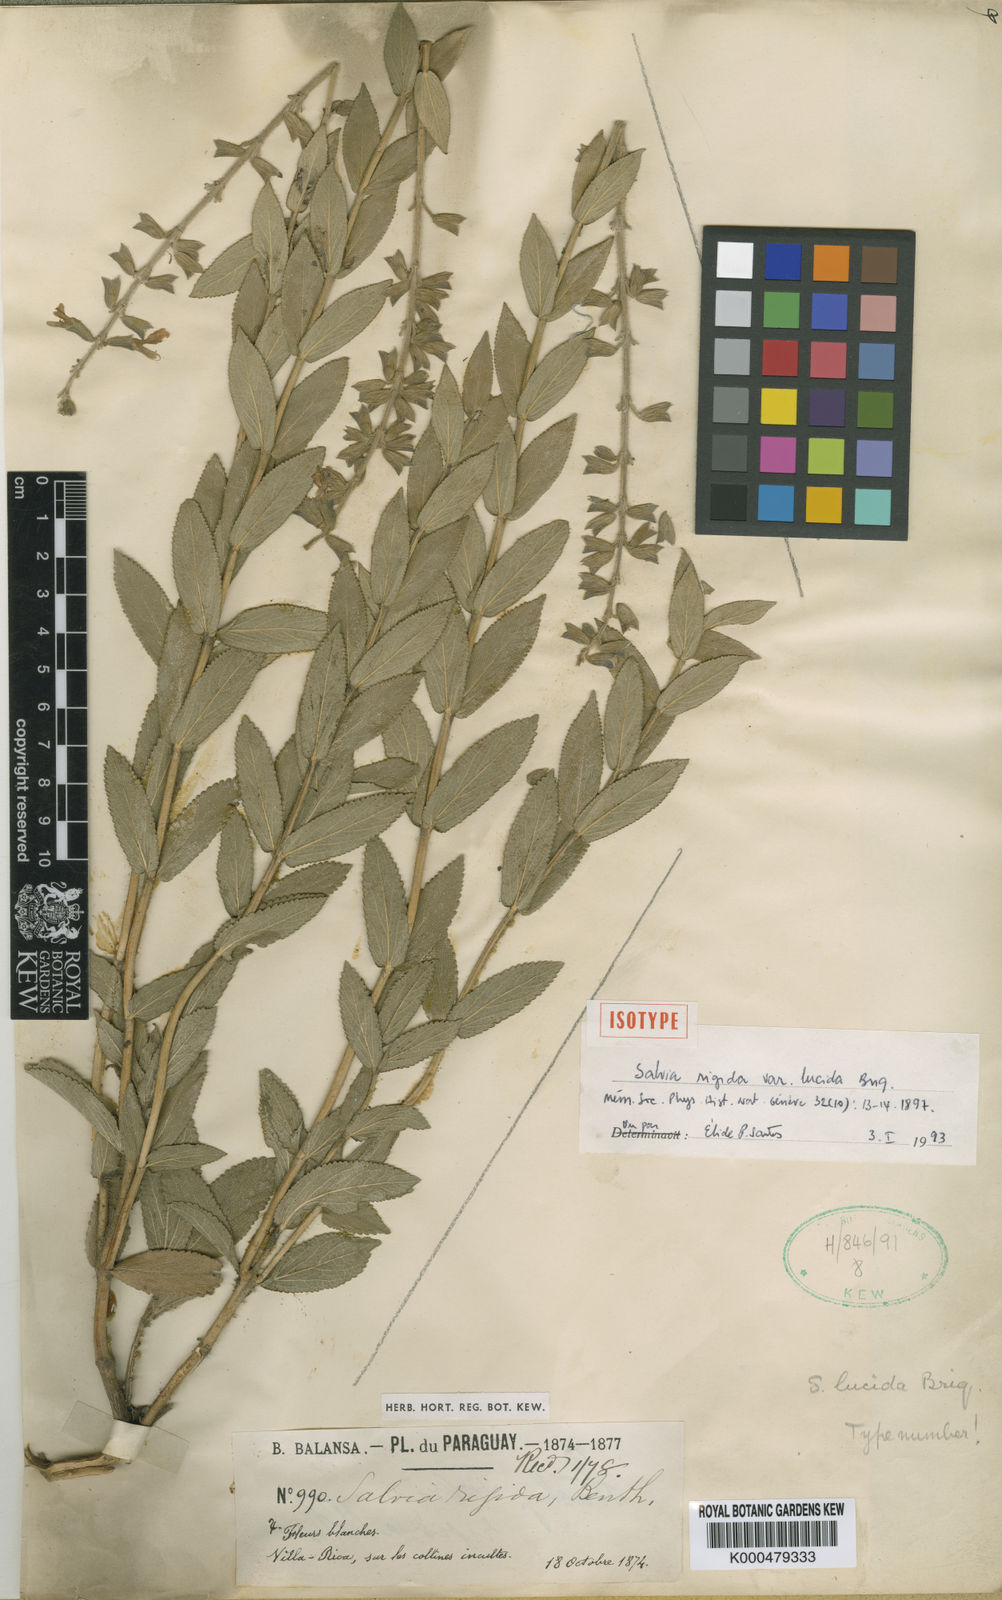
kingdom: Plantae
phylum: Tracheophyta
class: Magnoliopsida
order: Lamiales
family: Lamiaceae
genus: Salvia
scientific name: Salvia nervosa
